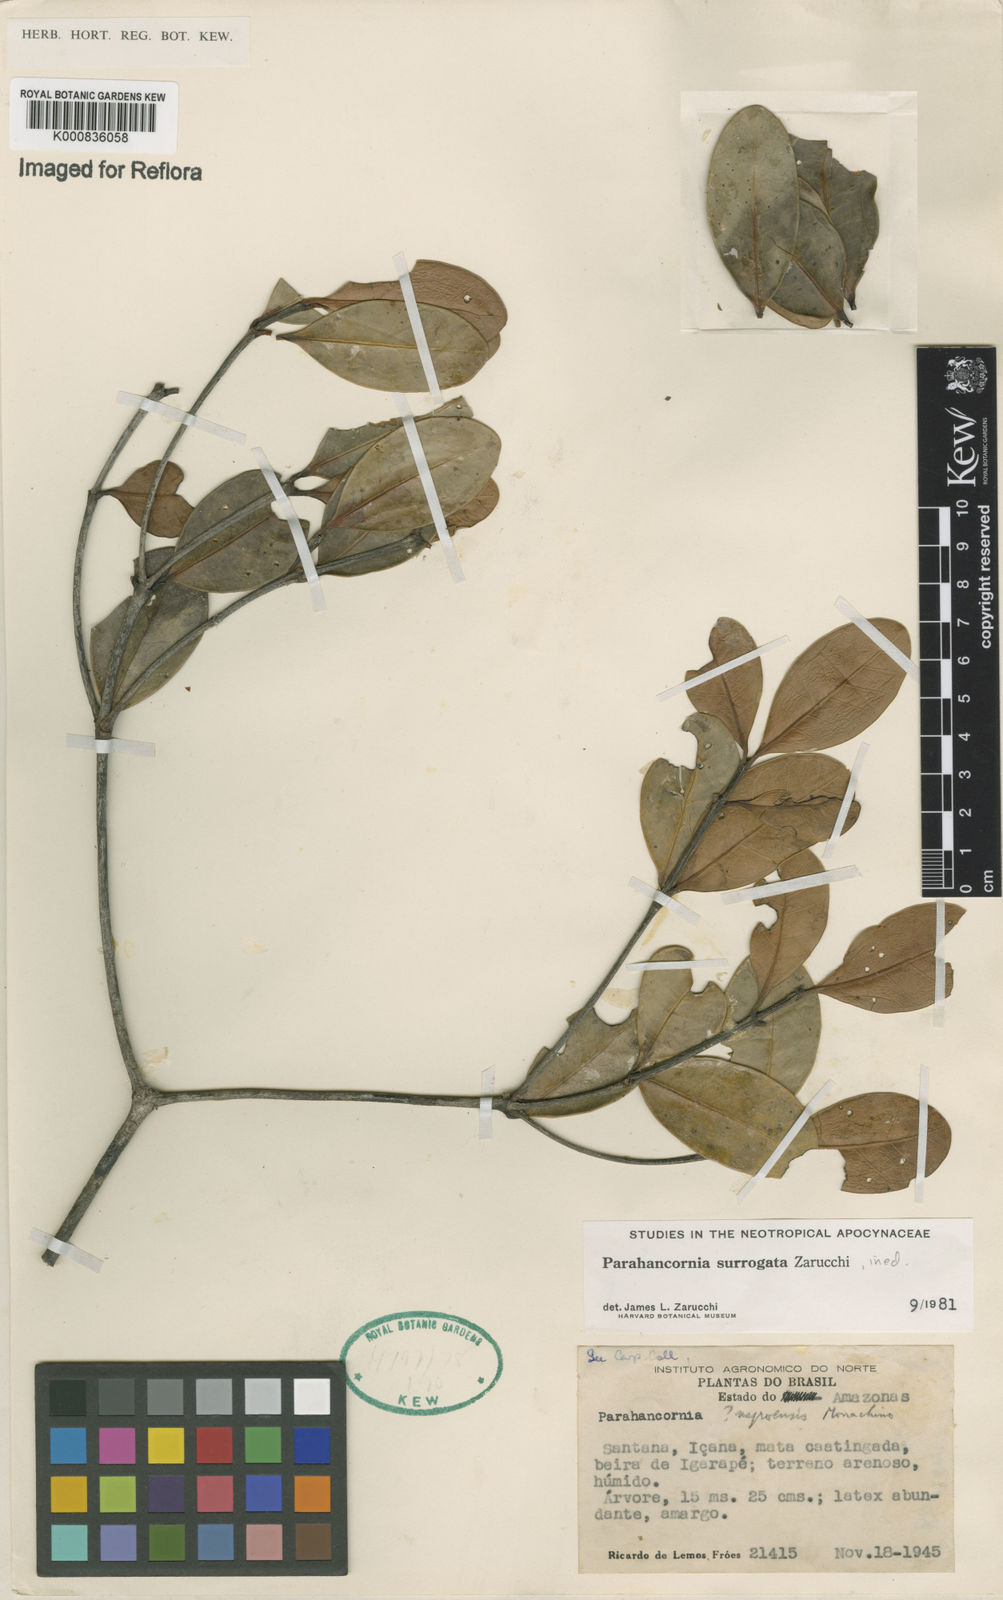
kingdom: Plantae
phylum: Tracheophyta
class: Magnoliopsida
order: Gentianales
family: Apocynaceae
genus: Parahancornia
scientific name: Parahancornia surrogata
